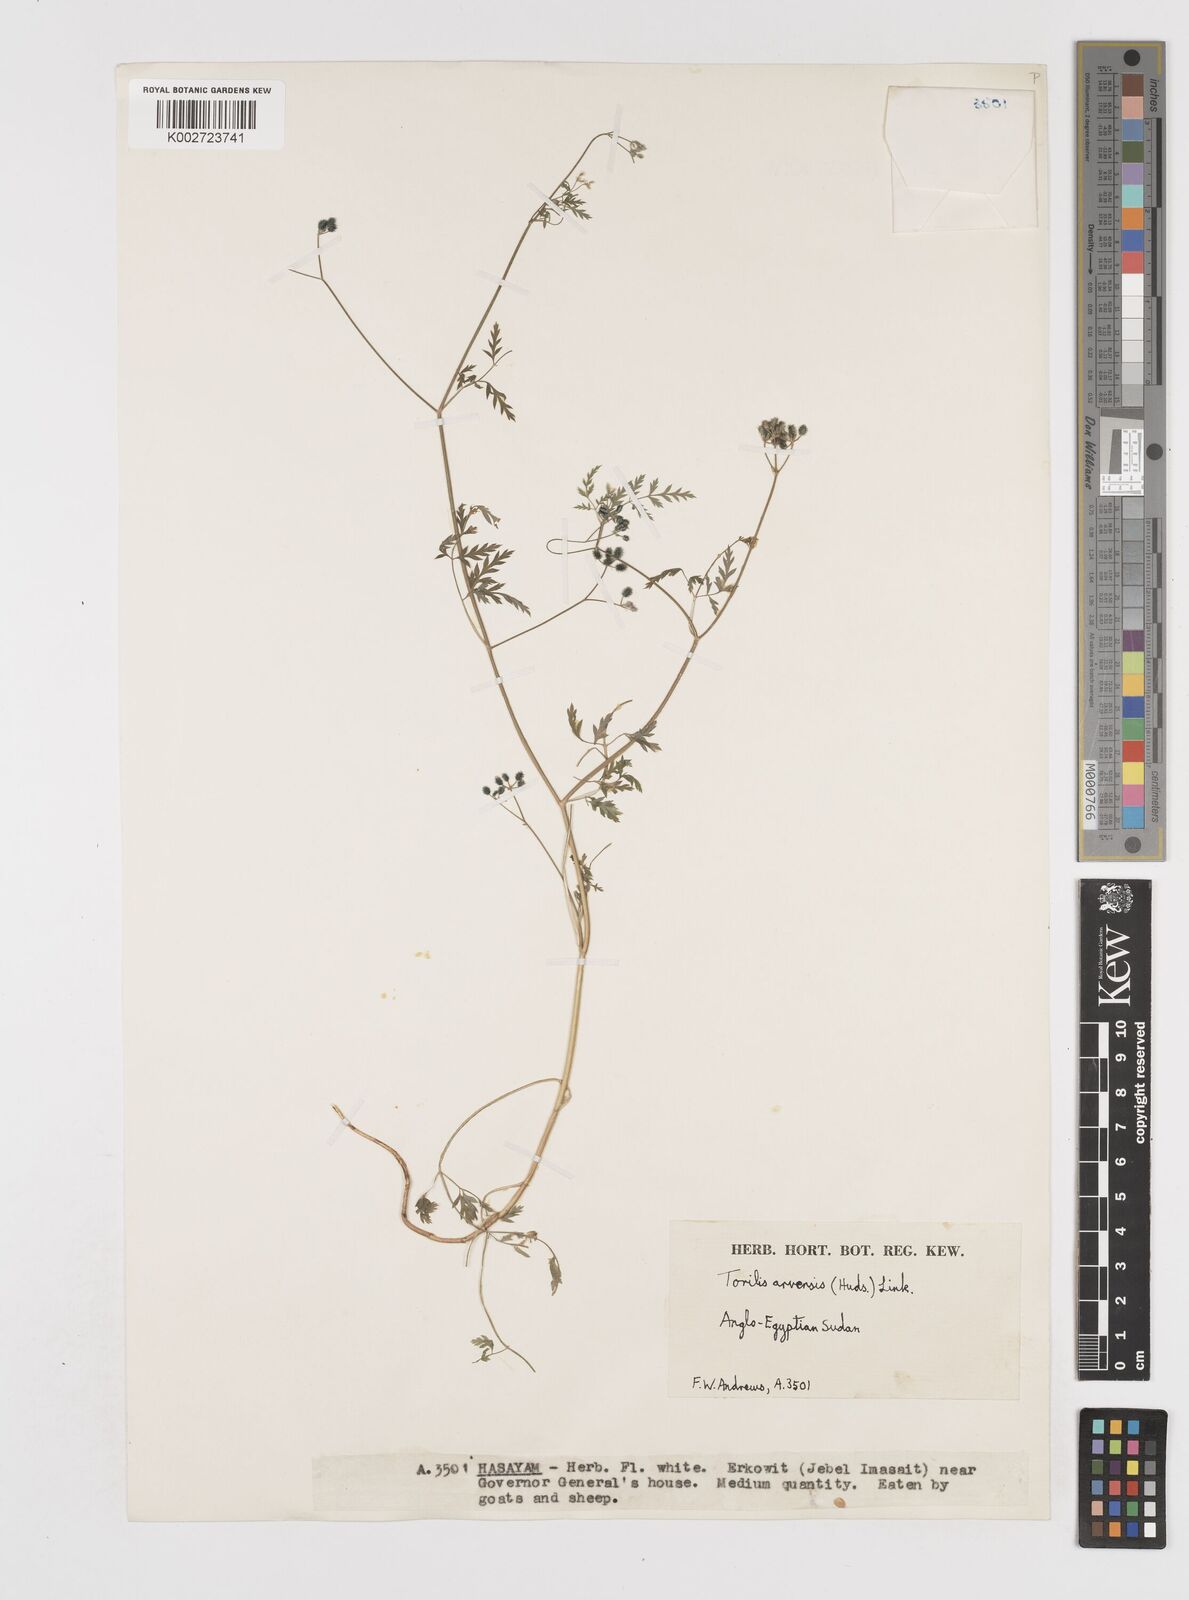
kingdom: Plantae
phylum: Tracheophyta
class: Magnoliopsida
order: Apiales
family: Apiaceae
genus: Torilis
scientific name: Torilis arvensis
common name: Spreading hedge-parsley
